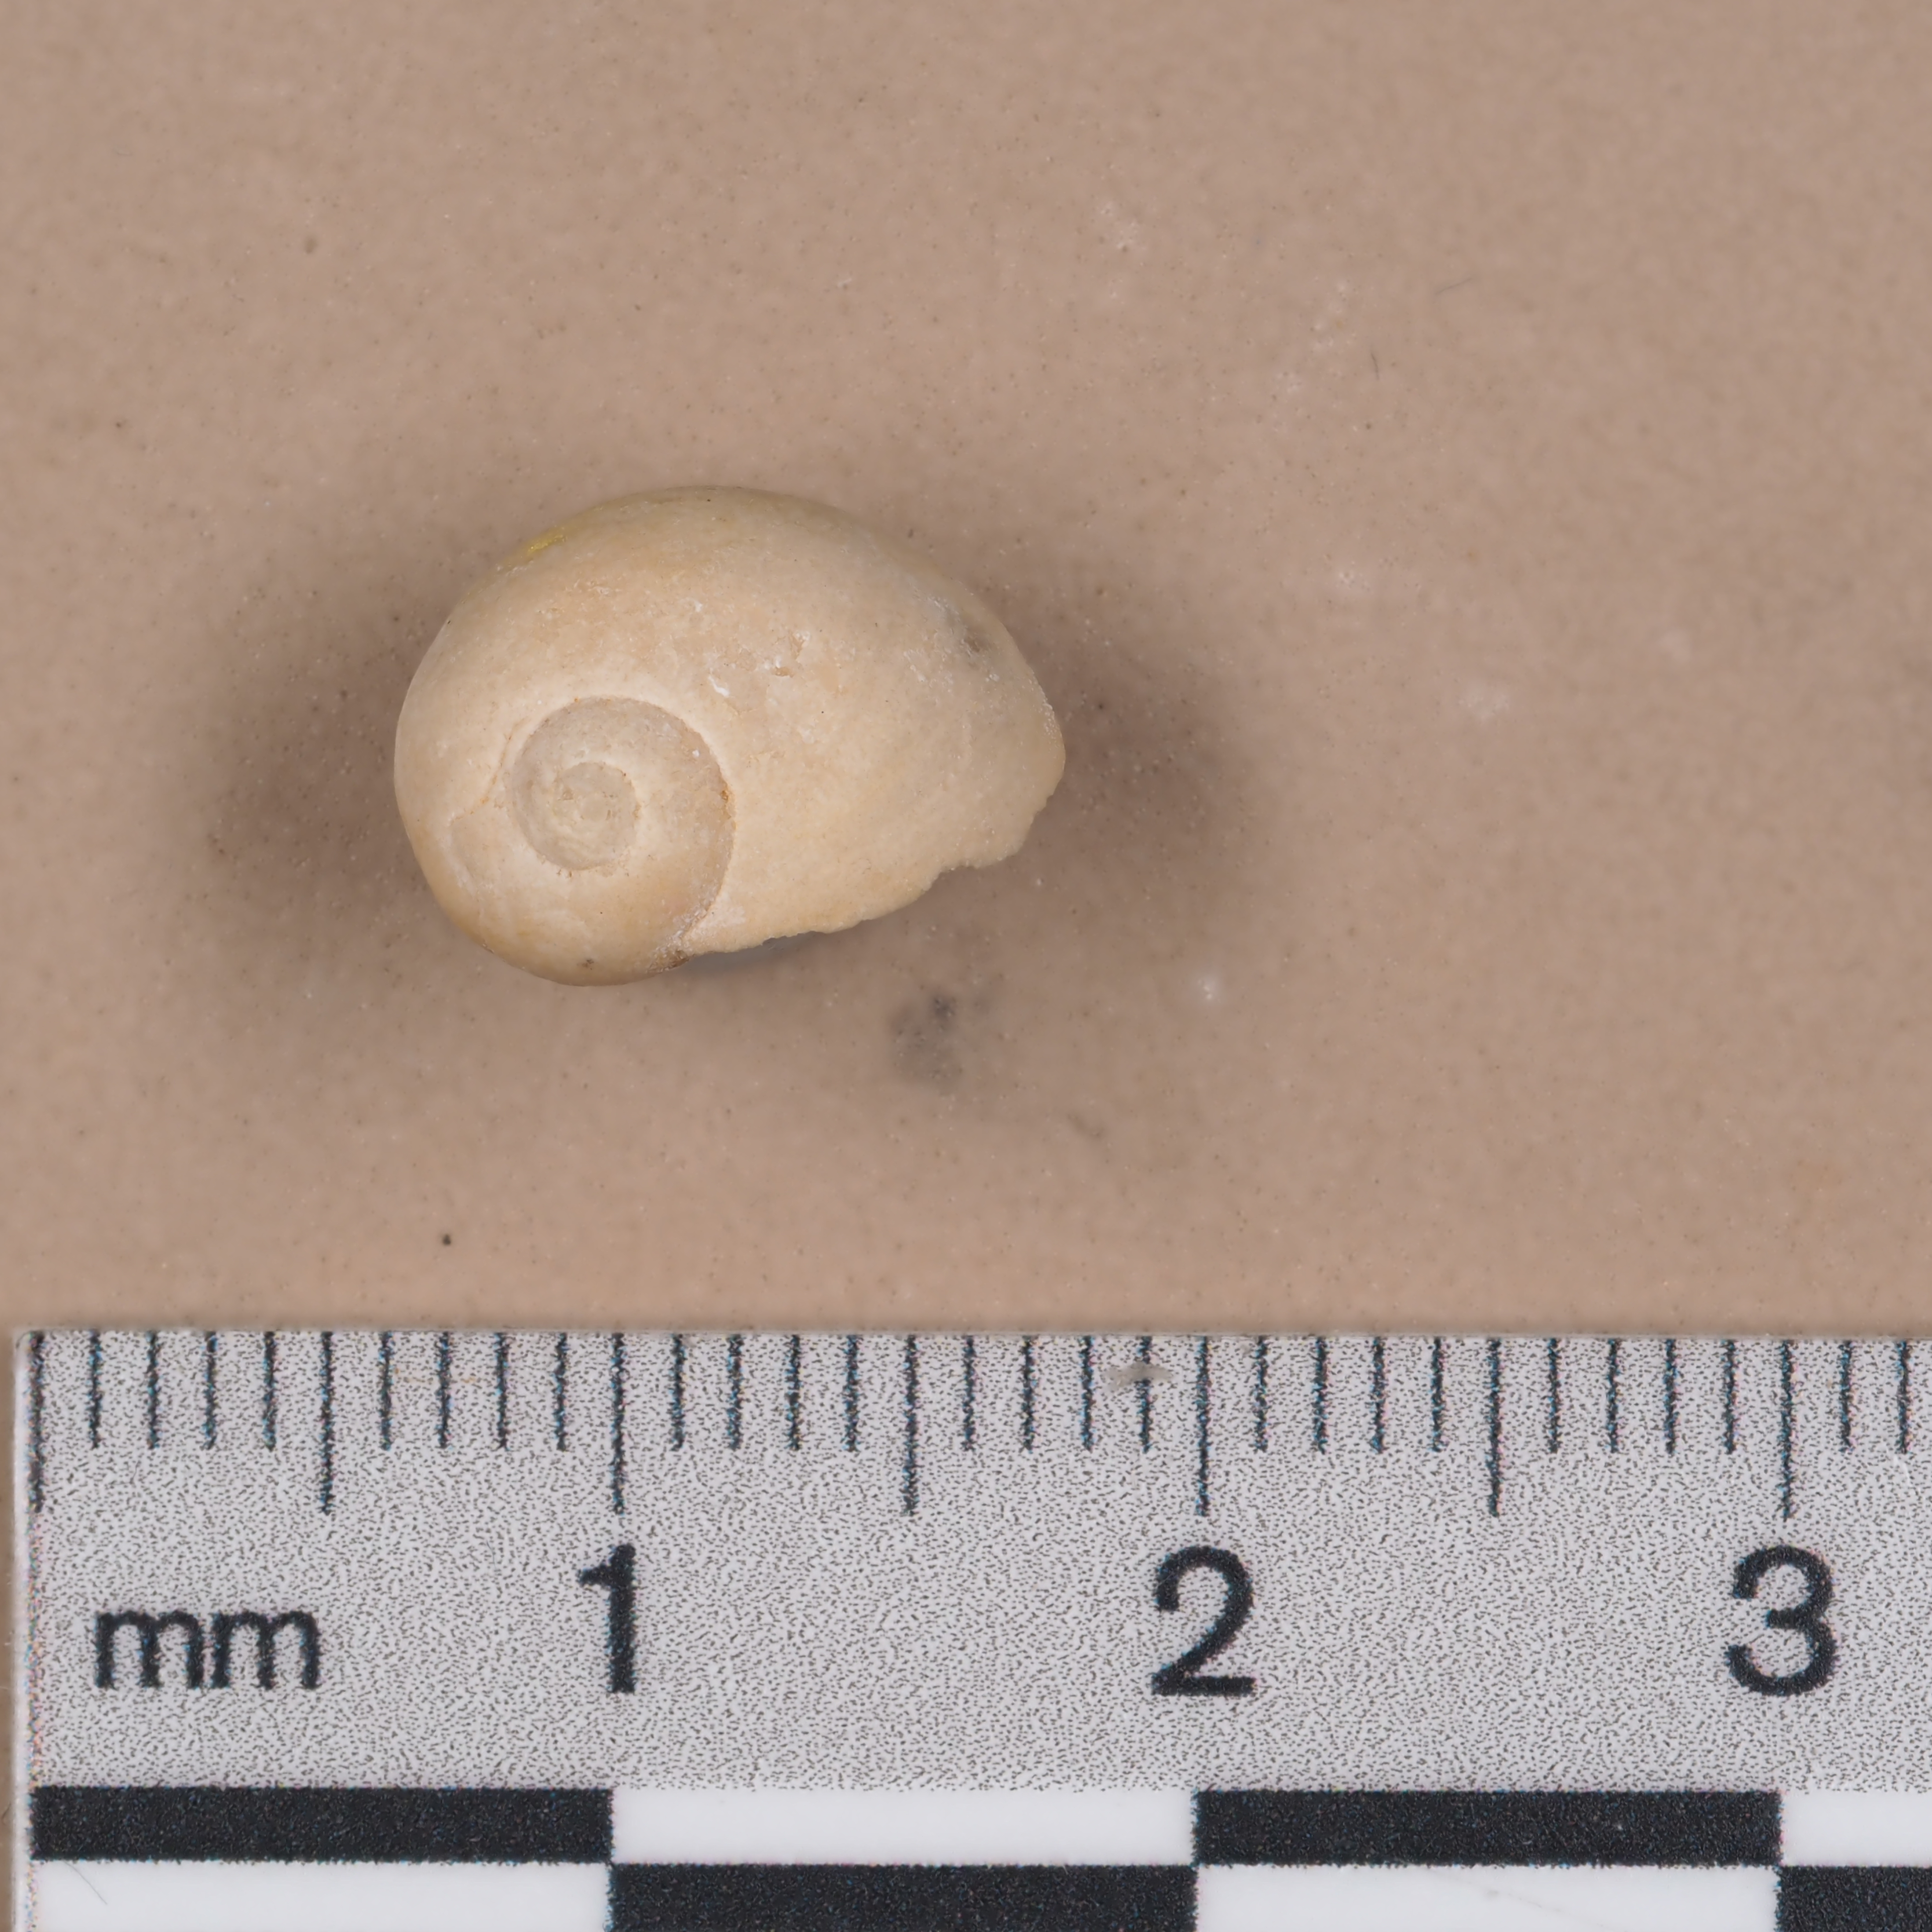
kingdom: Animalia
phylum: Mollusca
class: Gastropoda
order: Cycloneritida
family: Neridomidae
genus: Neridomus
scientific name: Neridomus Neritina cannabis
